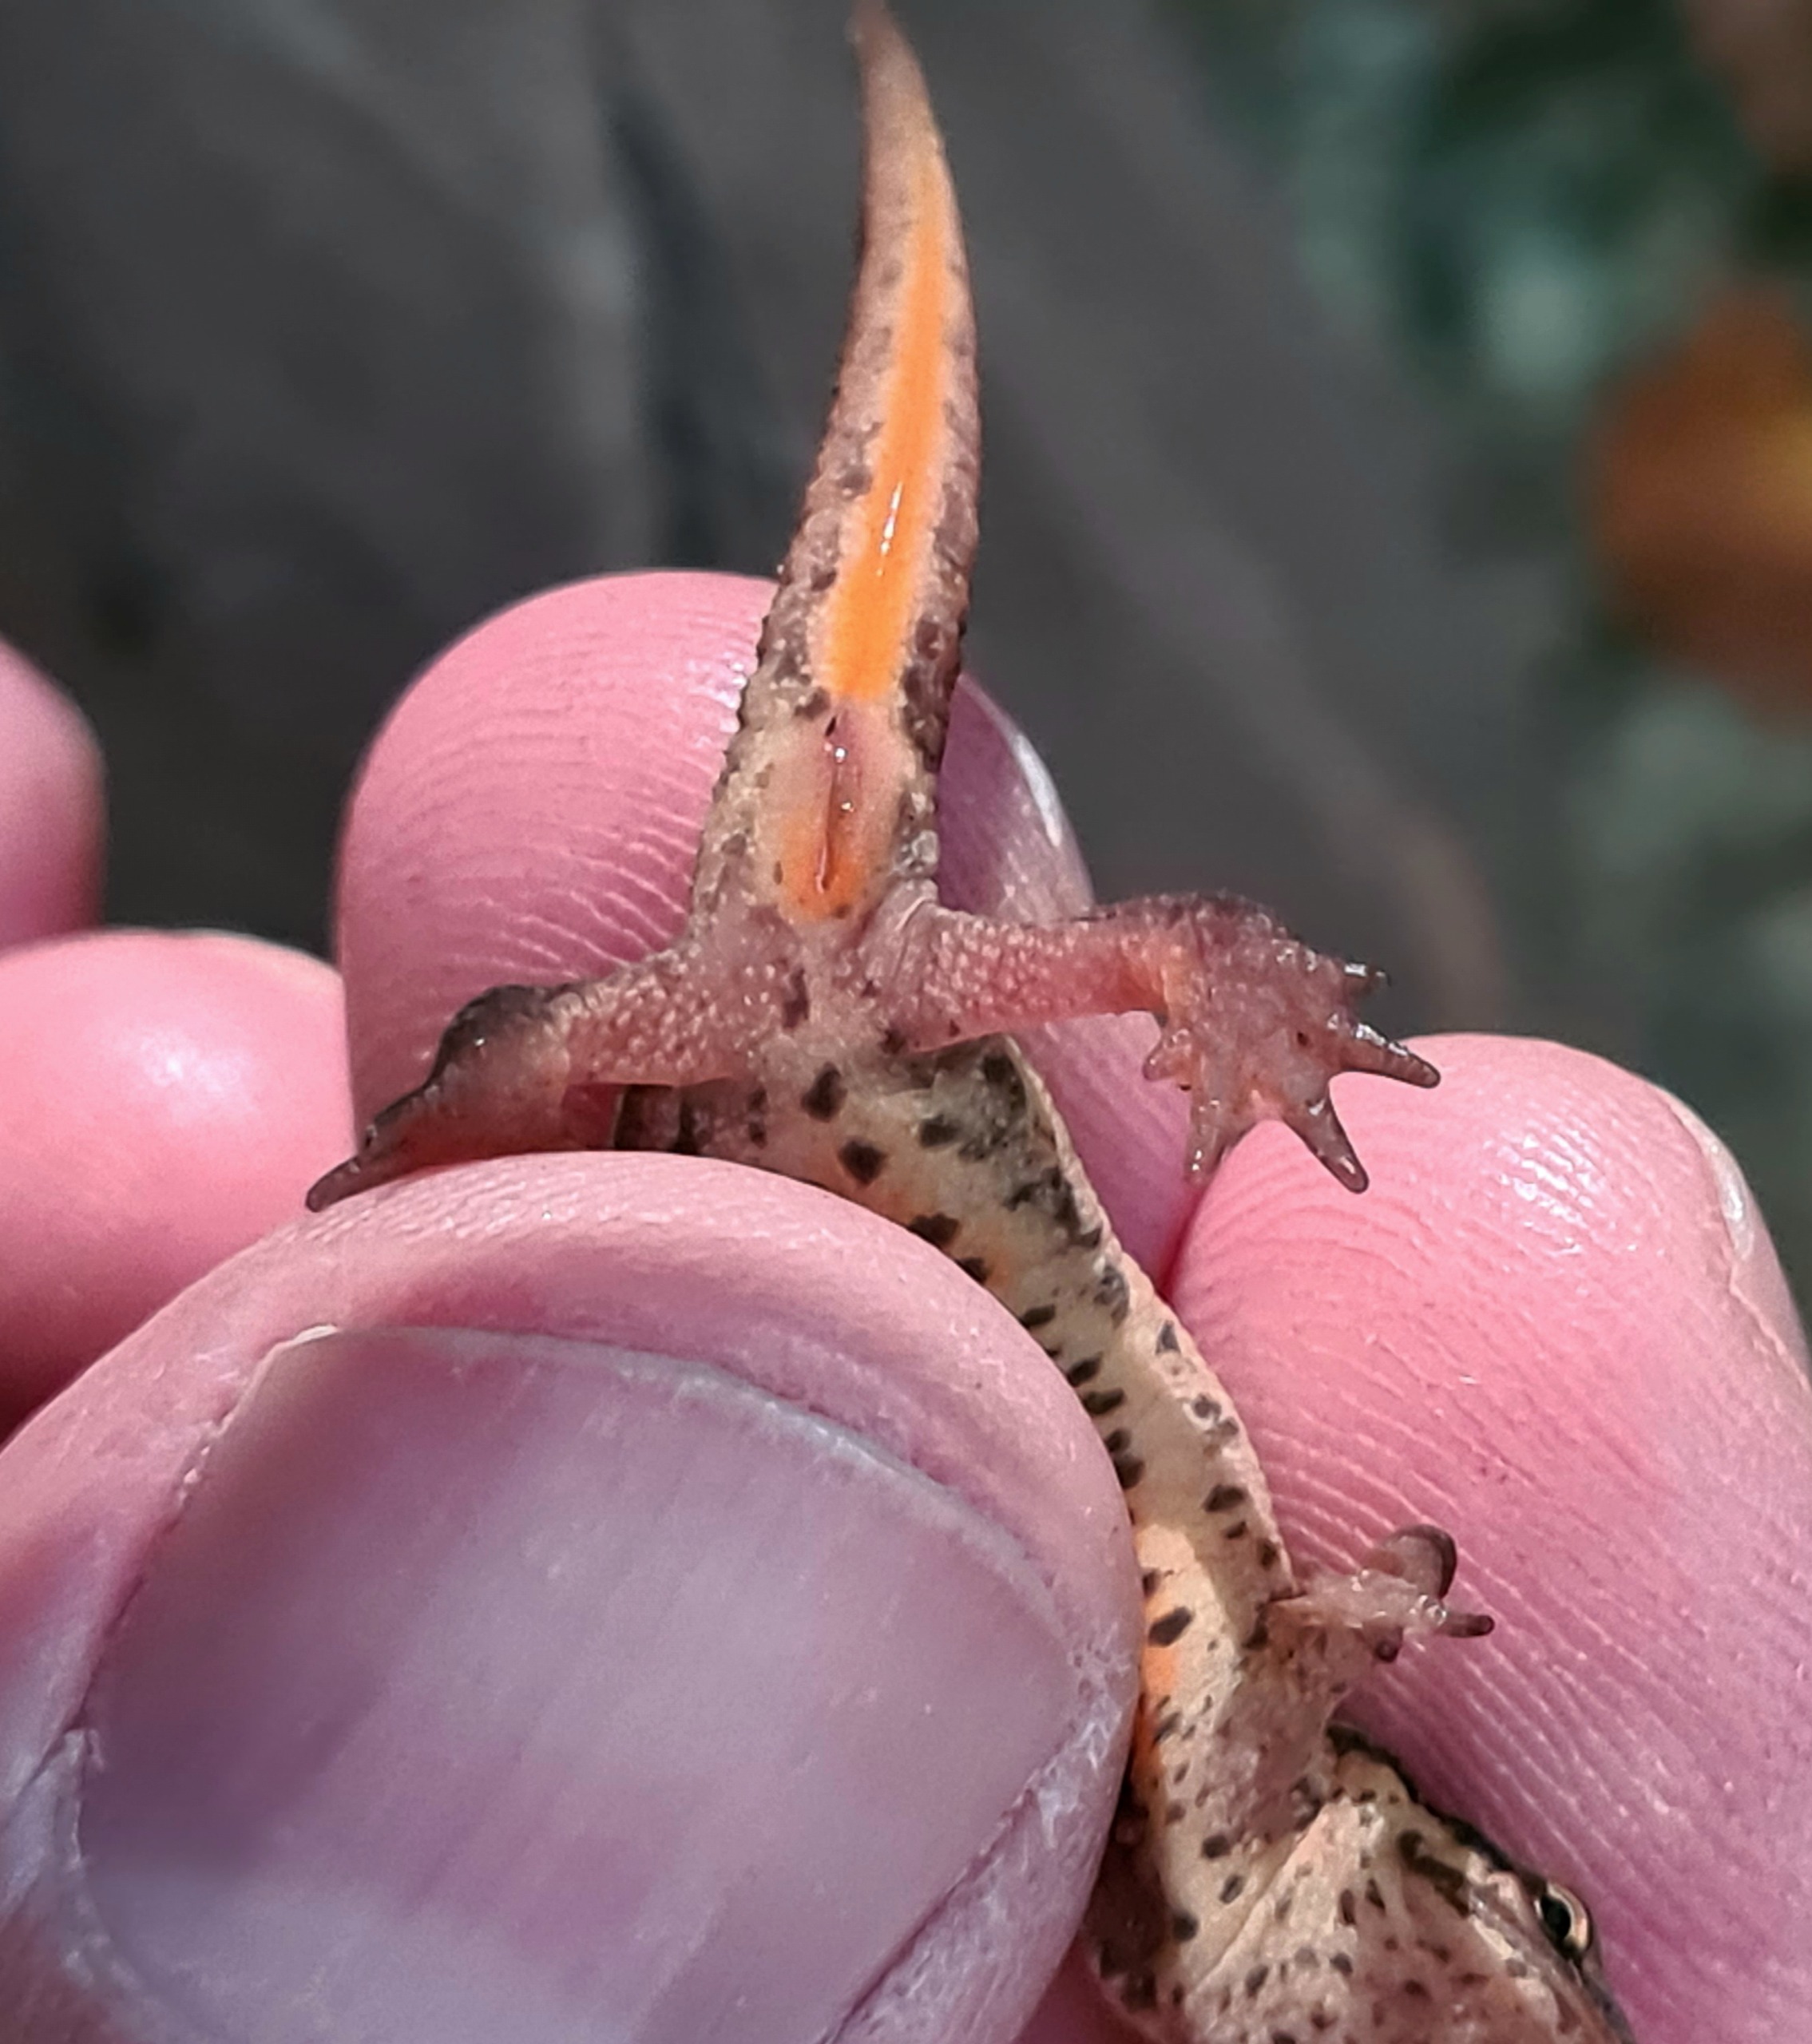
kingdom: Animalia
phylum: Chordata
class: Amphibia
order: Caudata
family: Salamandridae
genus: Lissotriton
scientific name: Lissotriton vulgaris
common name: Lille vandsalamander
